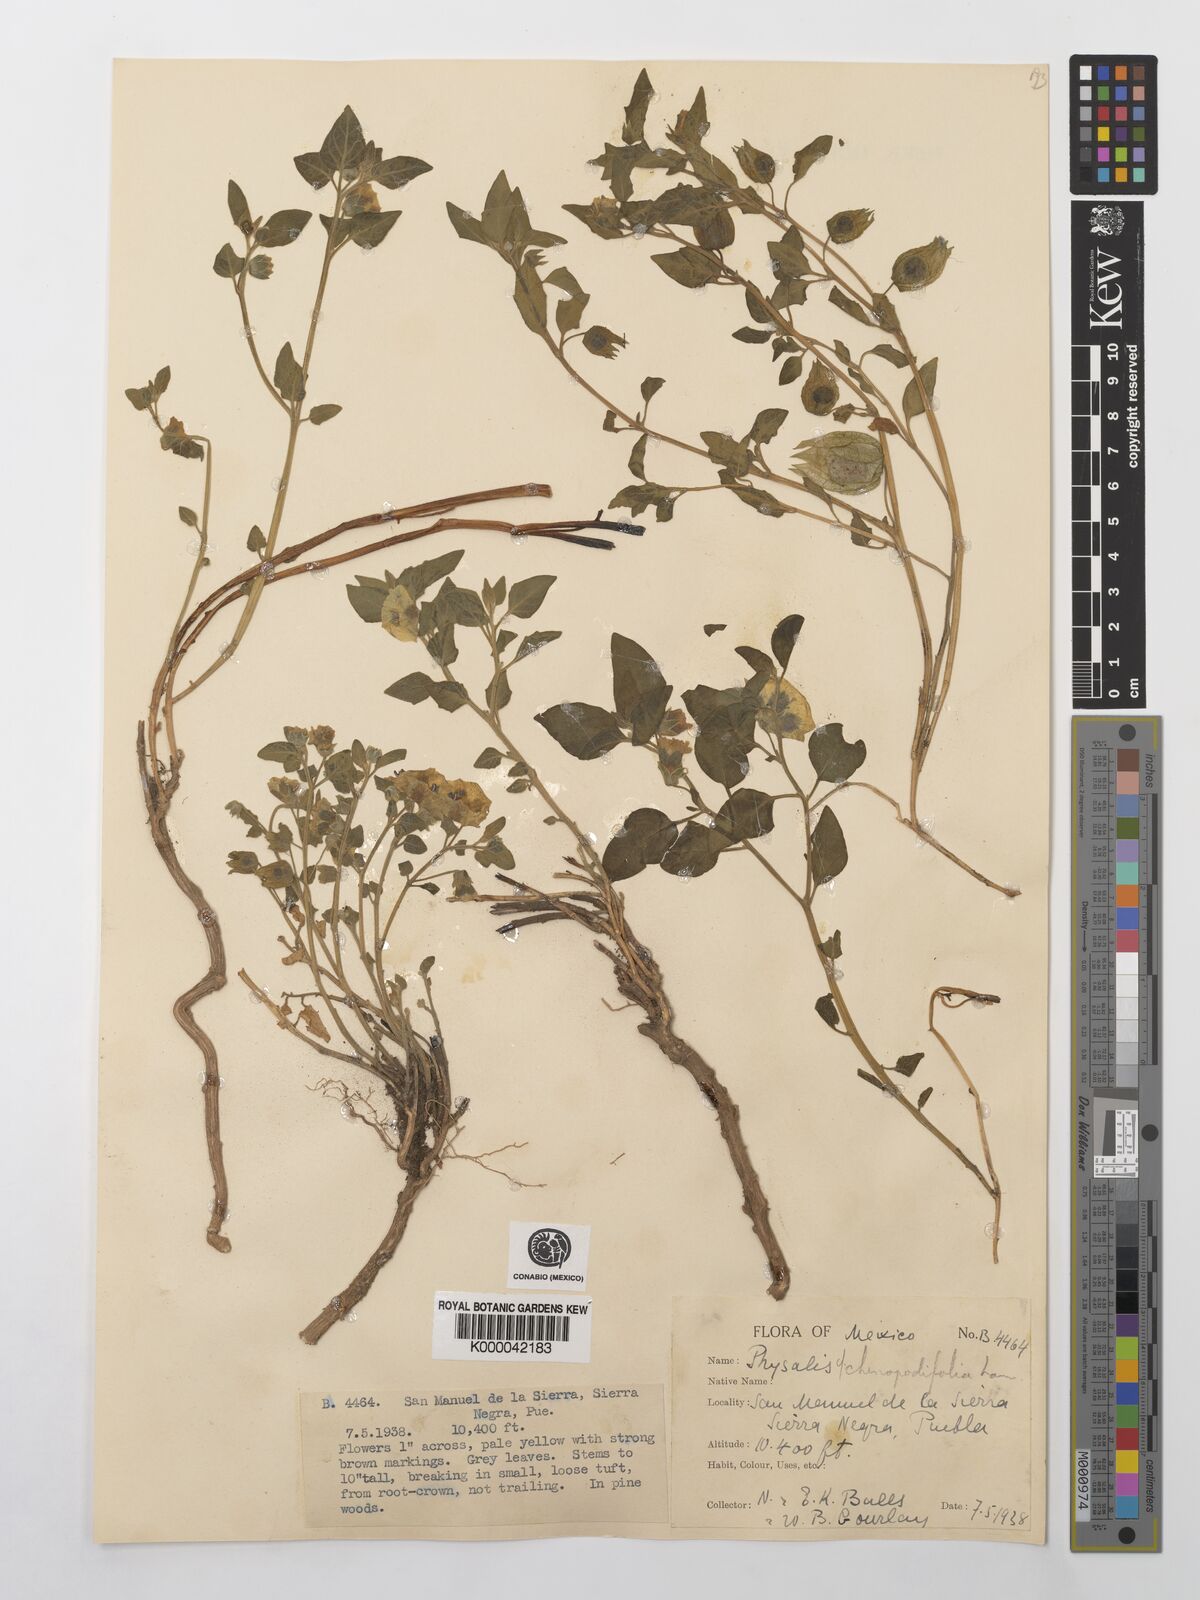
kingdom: Plantae
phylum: Tracheophyta
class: Magnoliopsida
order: Solanales
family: Solanaceae
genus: Physalis
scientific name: Physalis orizabae
